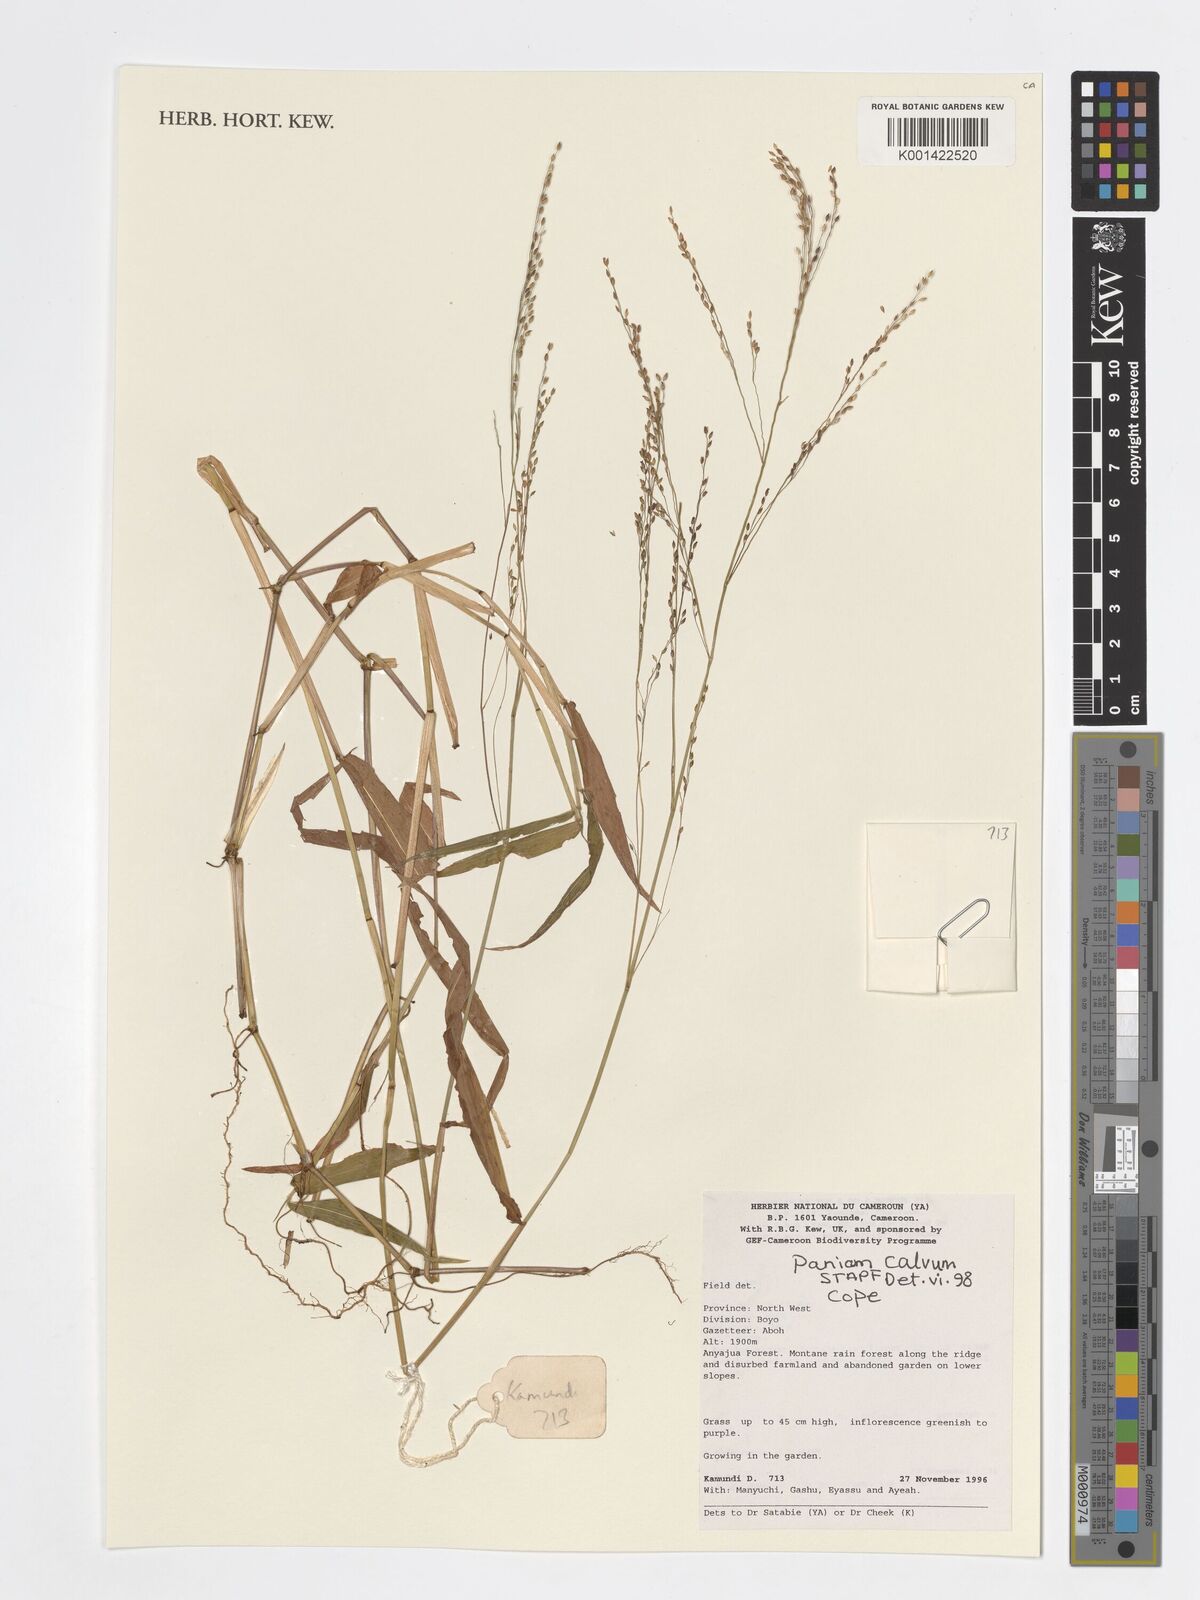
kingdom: Plantae
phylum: Tracheophyta
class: Liliopsida
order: Poales
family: Poaceae
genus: Panicum
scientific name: Panicum calvum
